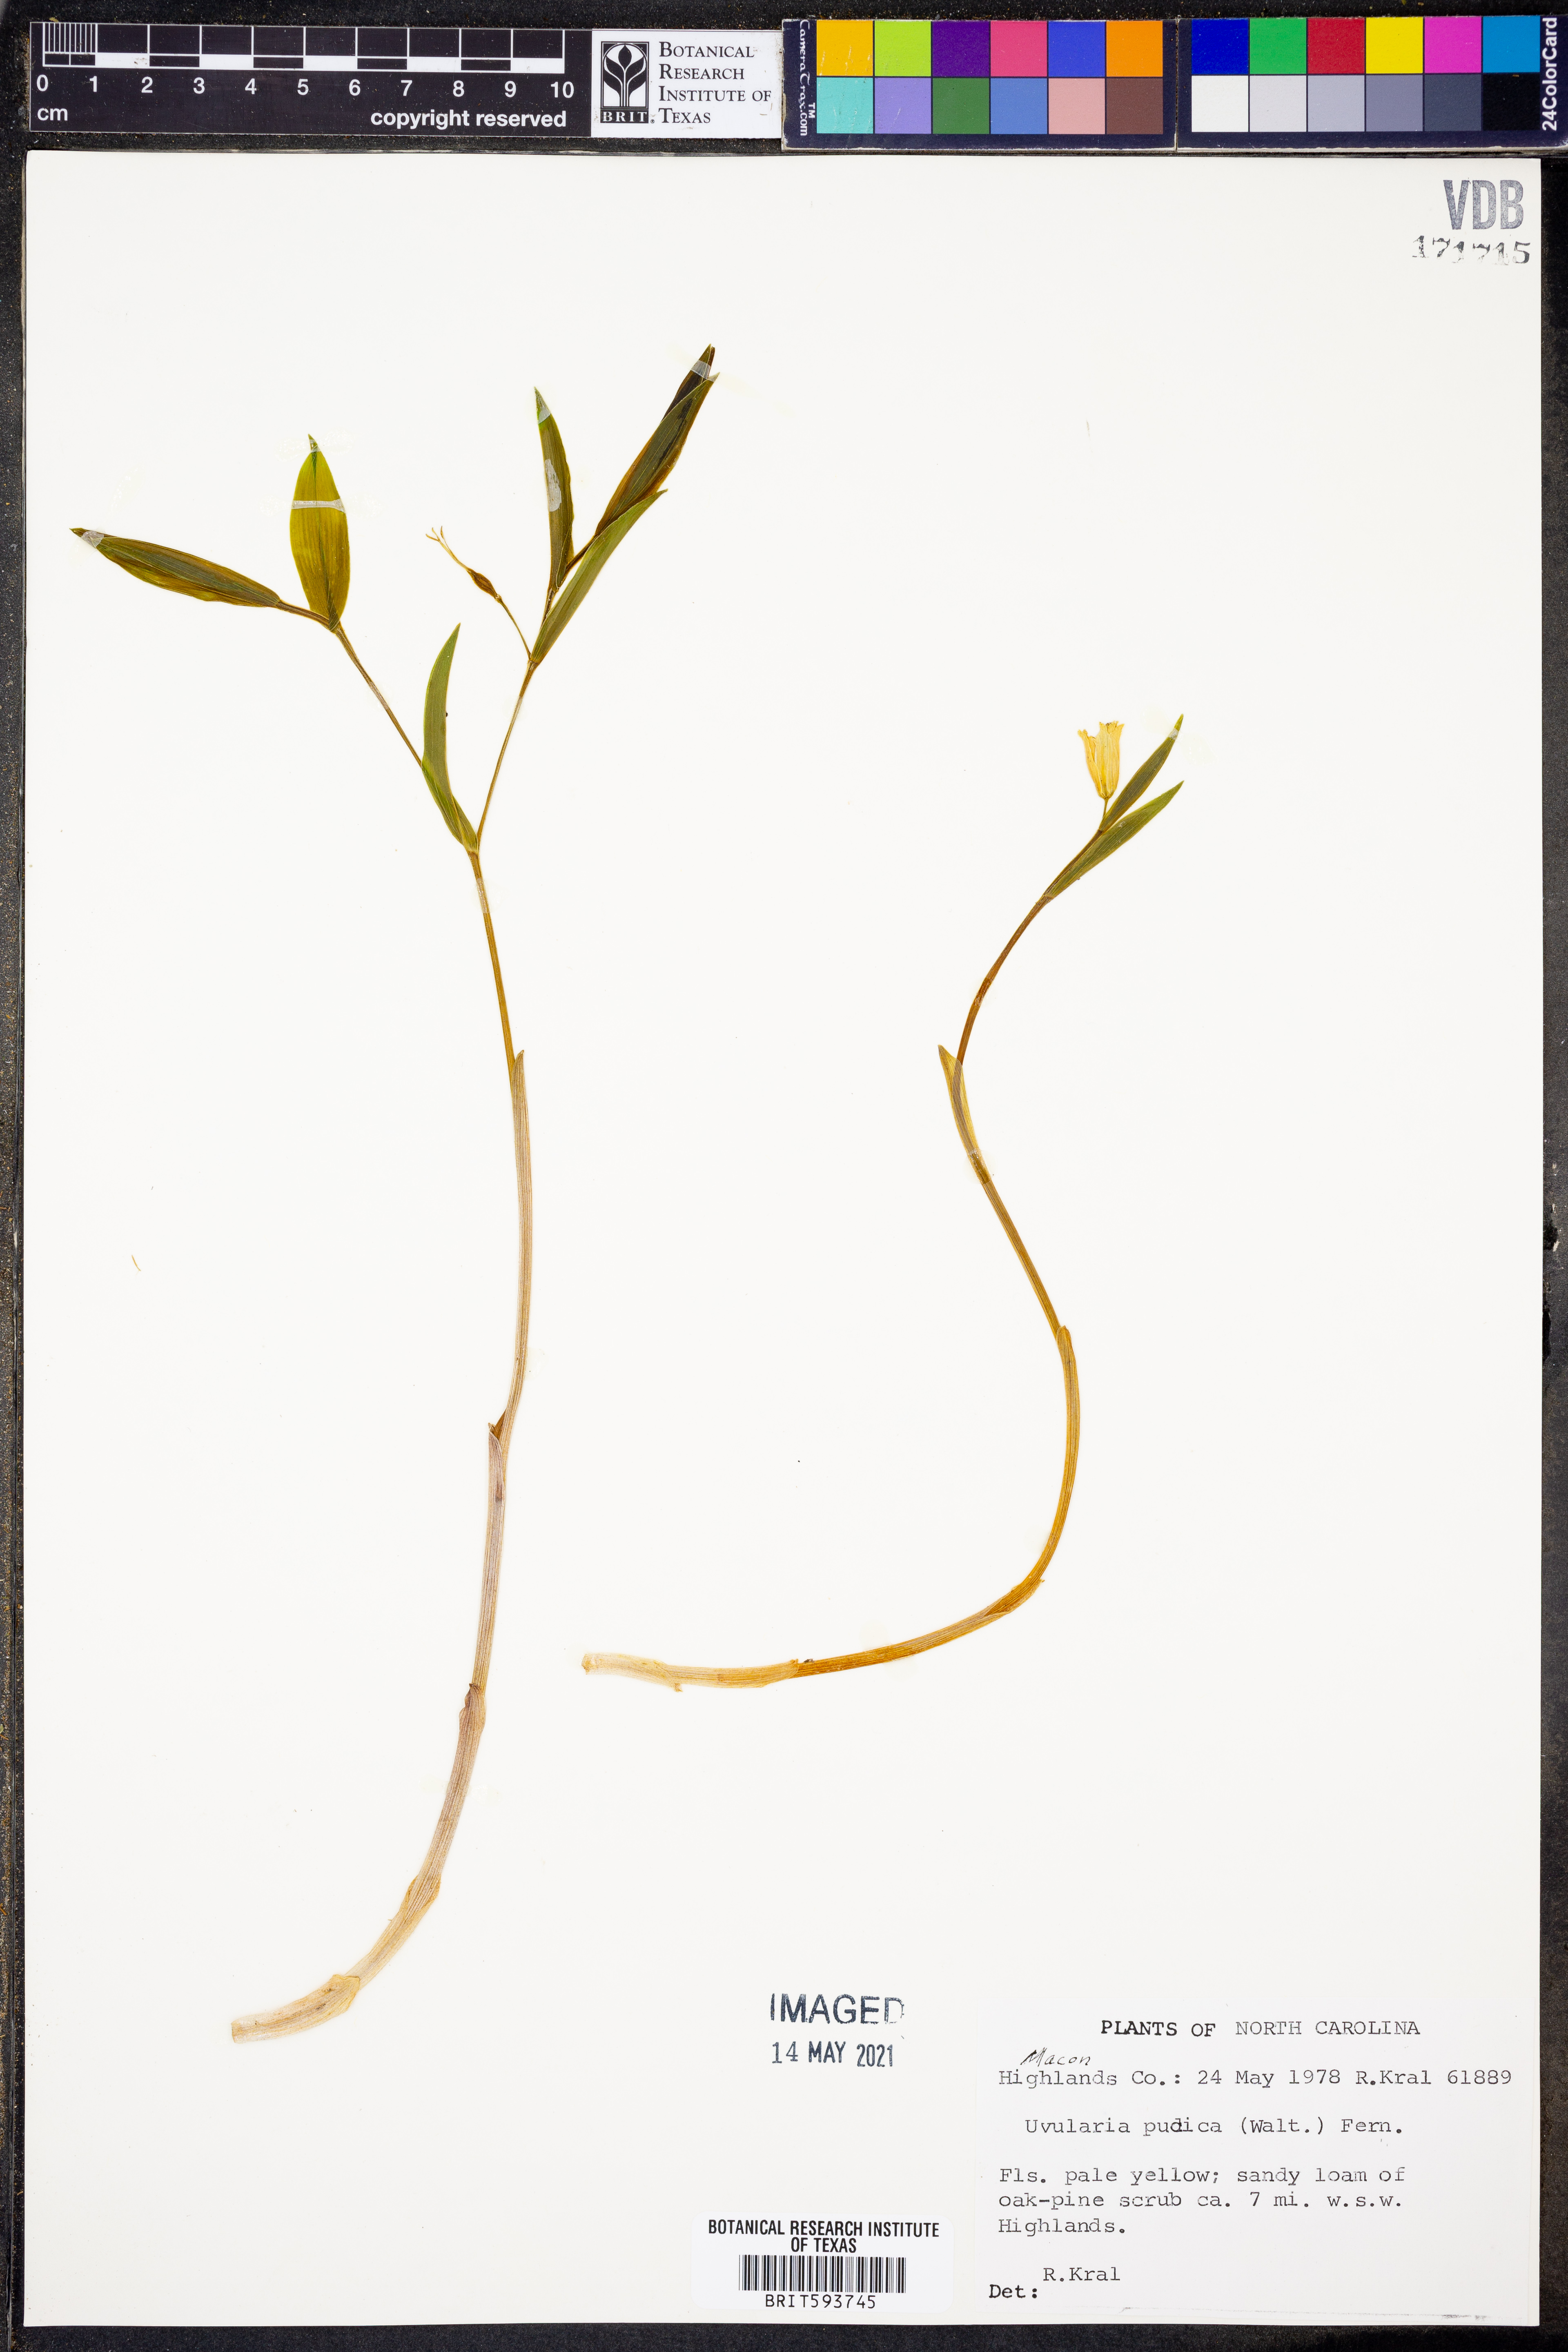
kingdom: Plantae
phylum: Tracheophyta
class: Liliopsida
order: Liliales
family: Colchicaceae
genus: Uvularia
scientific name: Uvularia perfoliata
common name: Perfoliate bellwort
